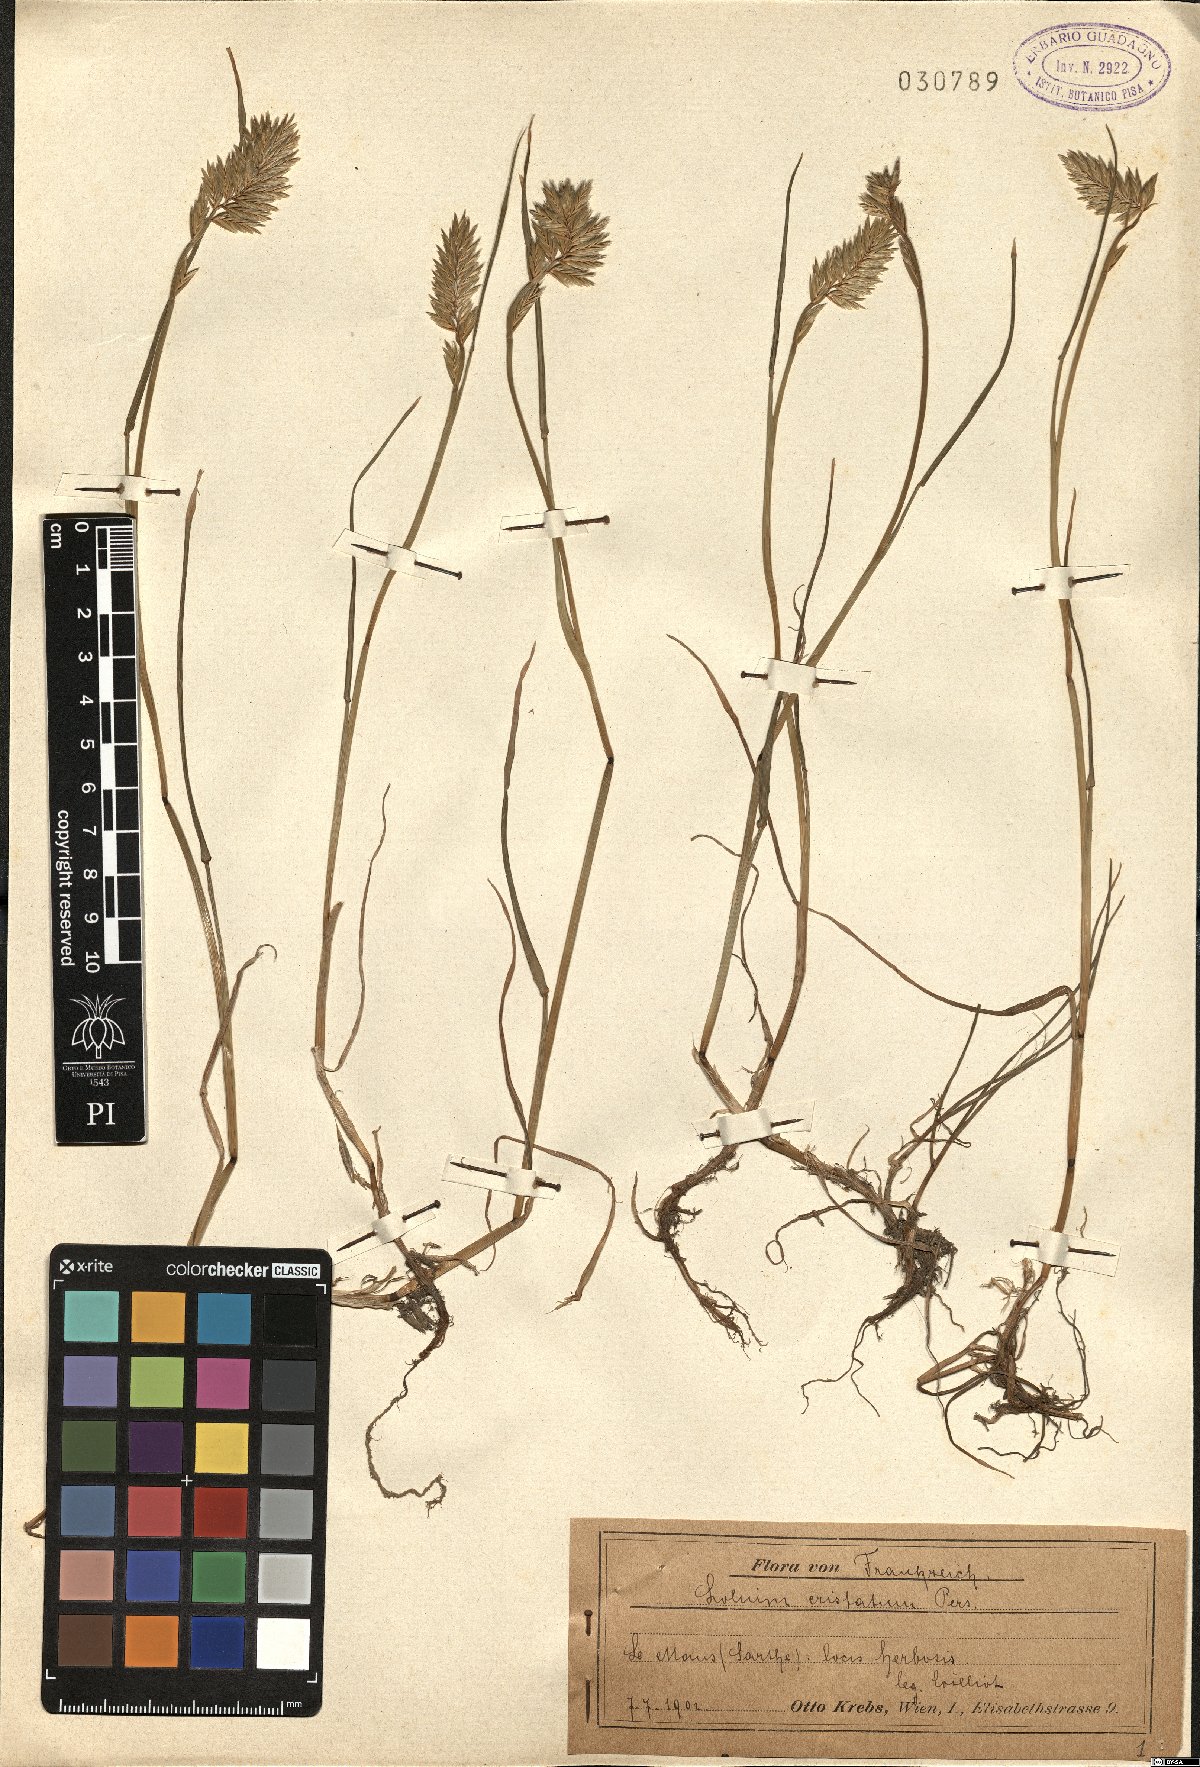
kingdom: Plantae
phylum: Tracheophyta
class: Liliopsida
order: Poales
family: Poaceae
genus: Lolium
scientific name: Lolium perenne
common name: Perennial ryegrass
